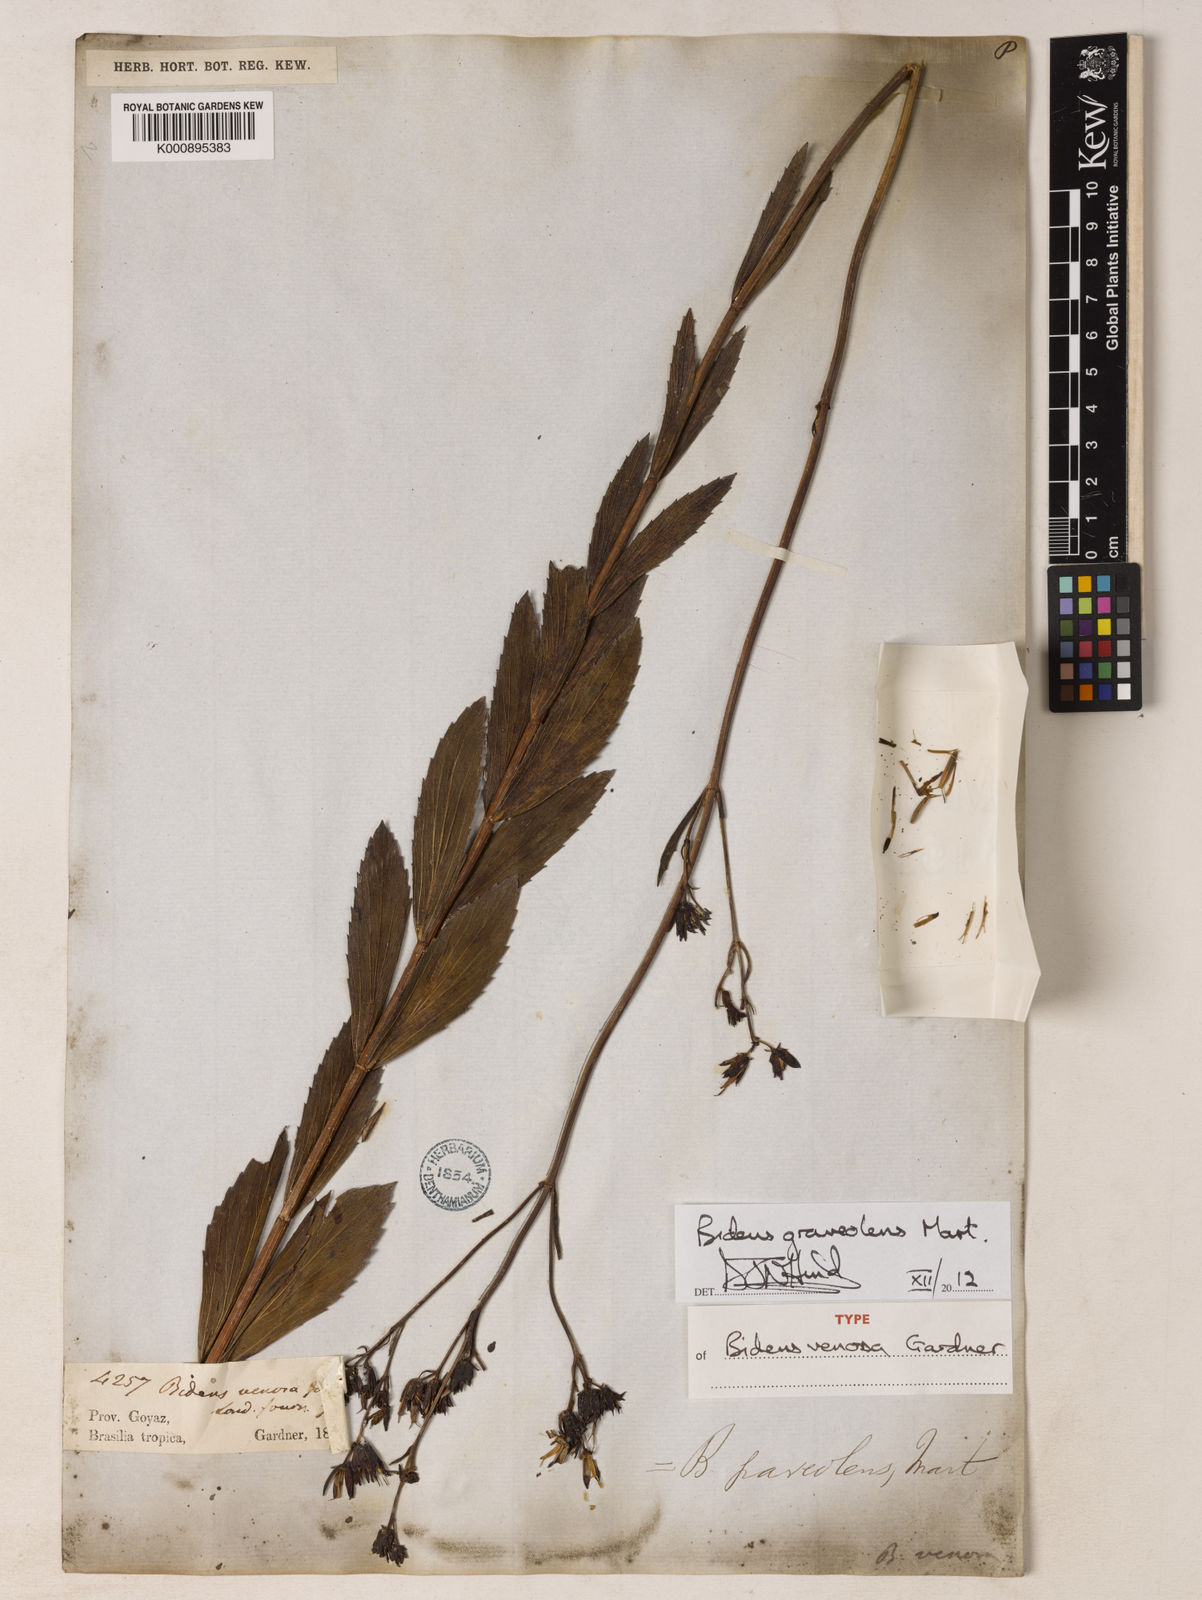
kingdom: Plantae
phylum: Tracheophyta
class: Magnoliopsida
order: Asterales
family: Asteraceae
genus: Bidens
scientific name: Bidens graveolens
